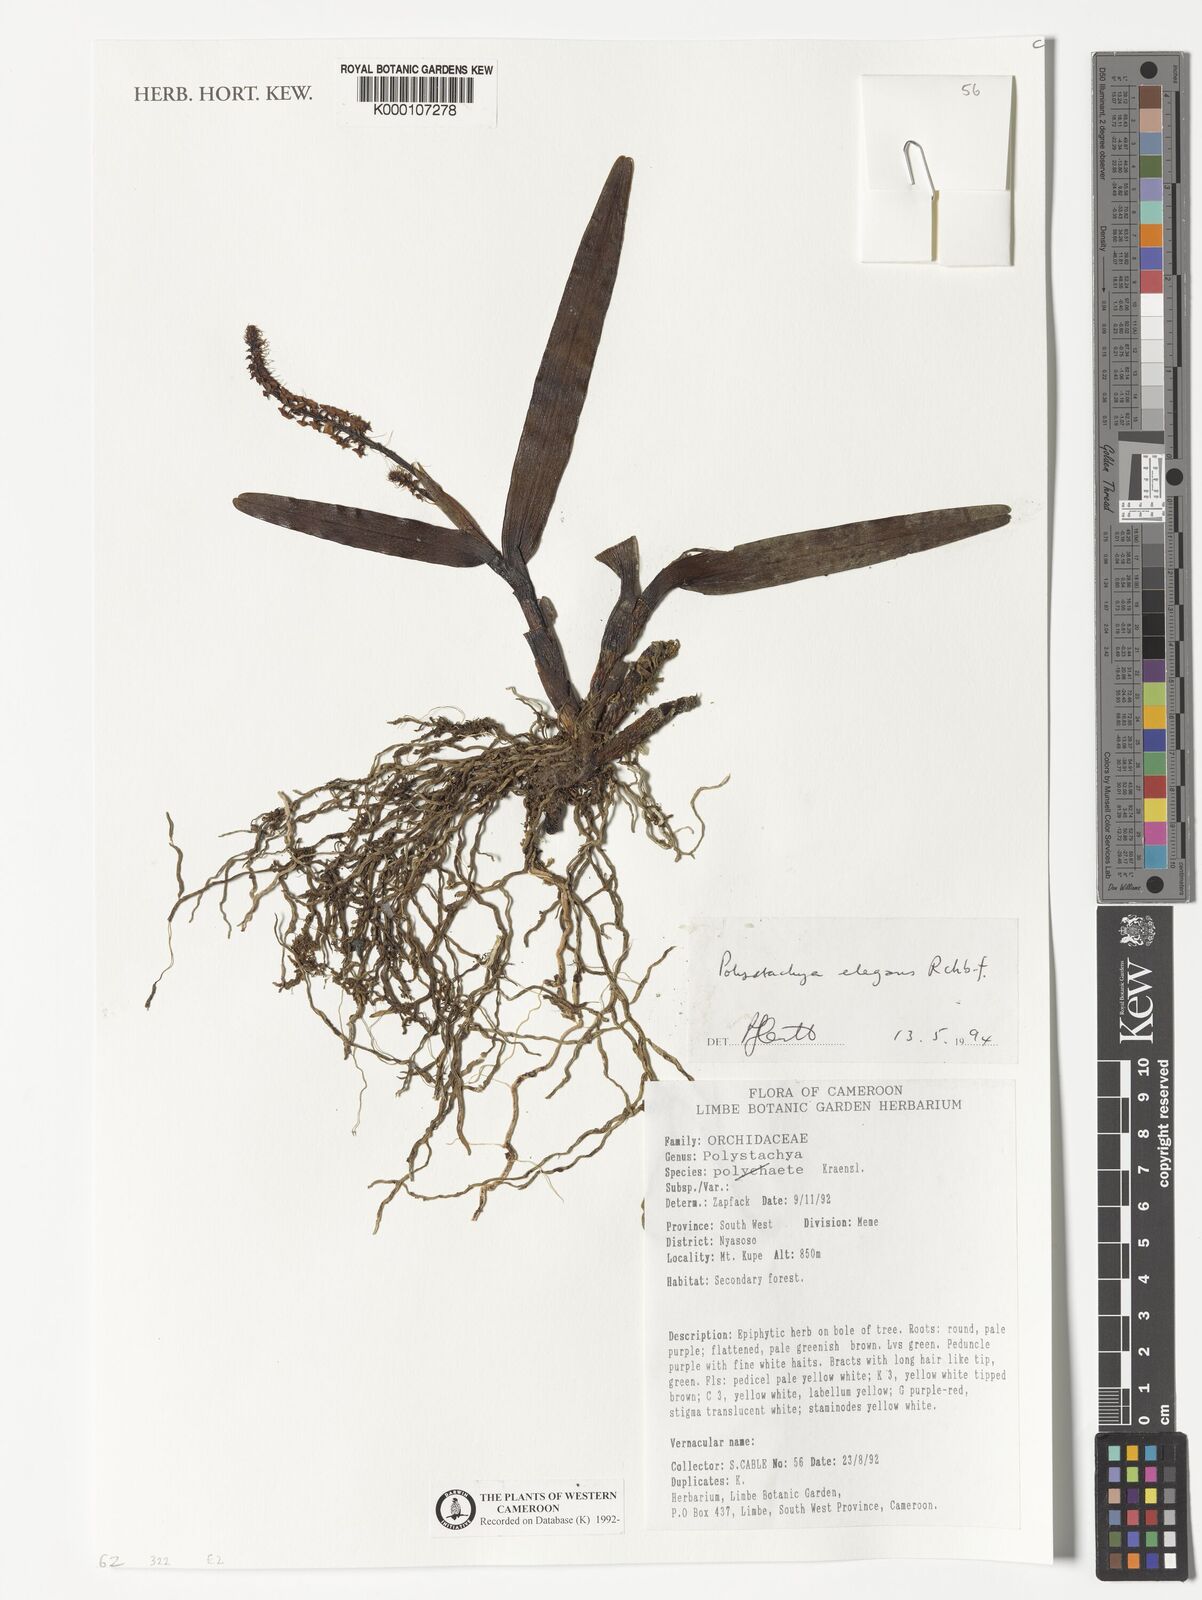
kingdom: Plantae
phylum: Tracheophyta
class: Liliopsida
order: Asparagales
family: Orchidaceae
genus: Polystachya
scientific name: Polystachya elegans
